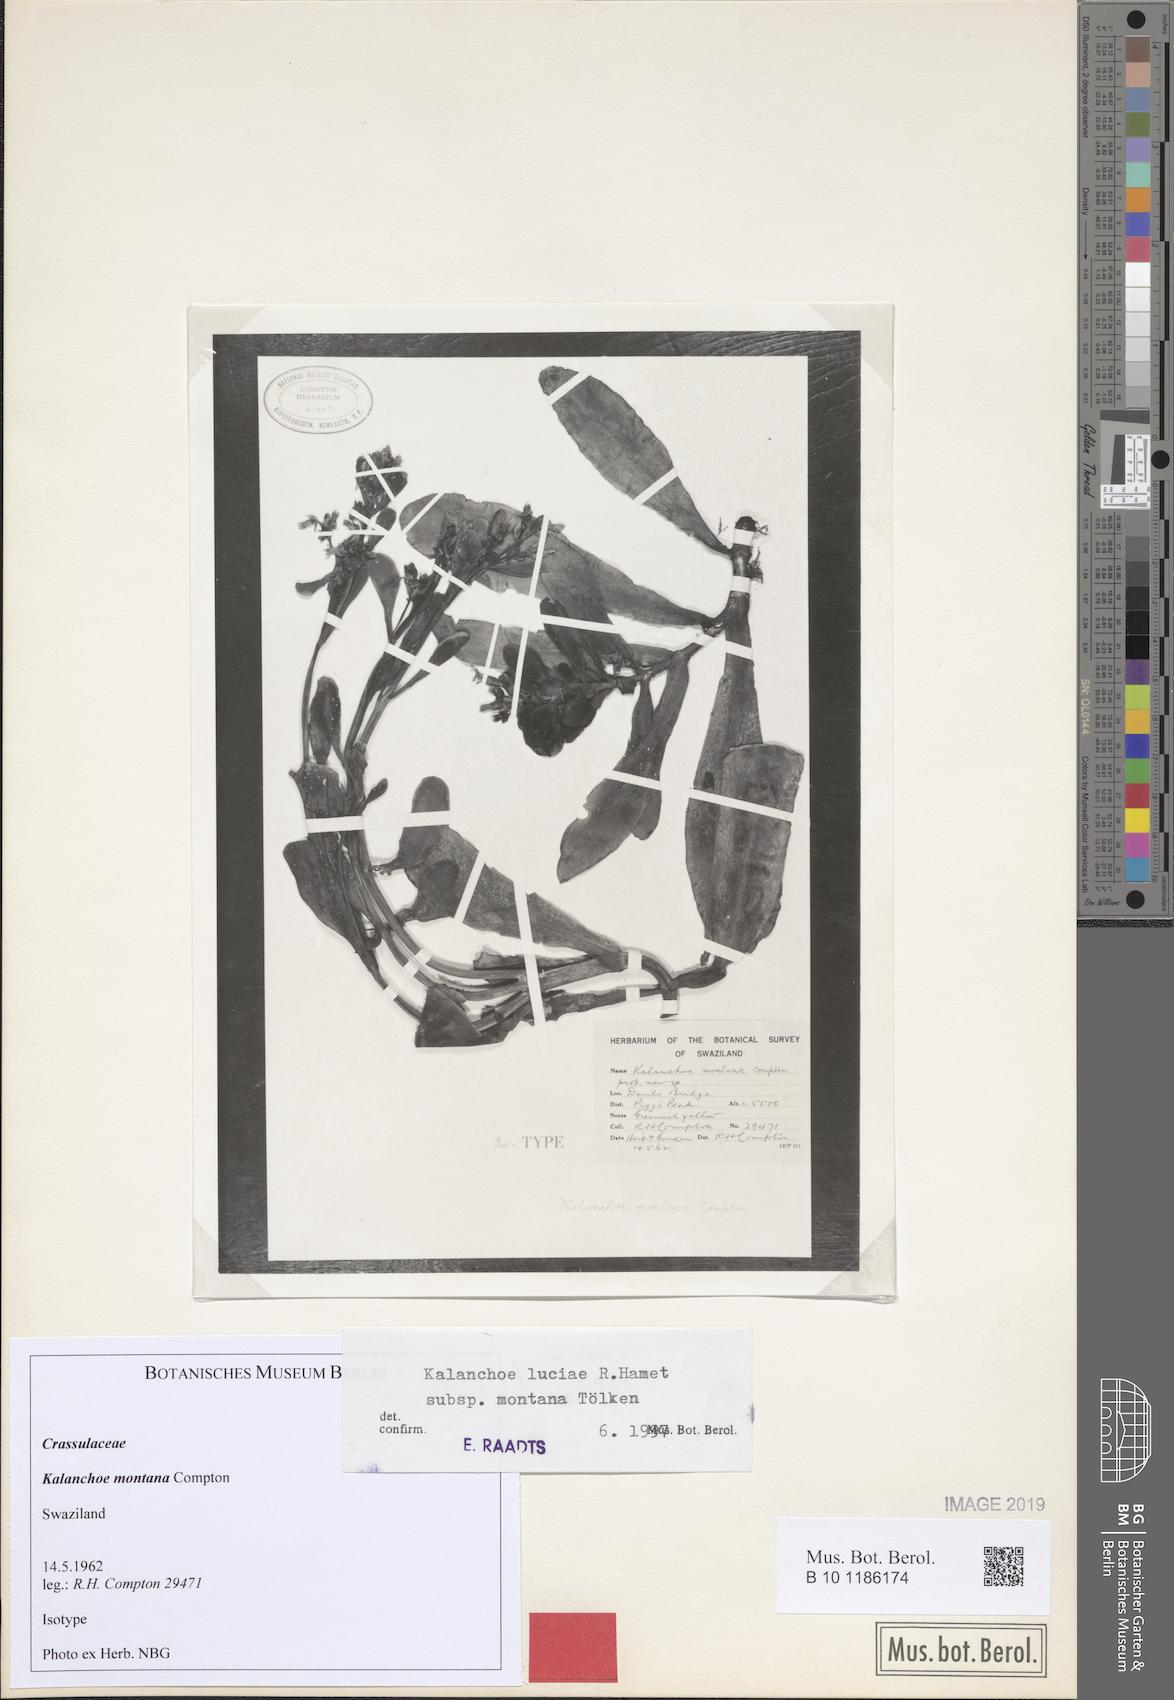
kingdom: Plantae
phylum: Tracheophyta
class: Magnoliopsida
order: Saxifragales
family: Crassulaceae
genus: Kalanchoe
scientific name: Kalanchoe luciae
